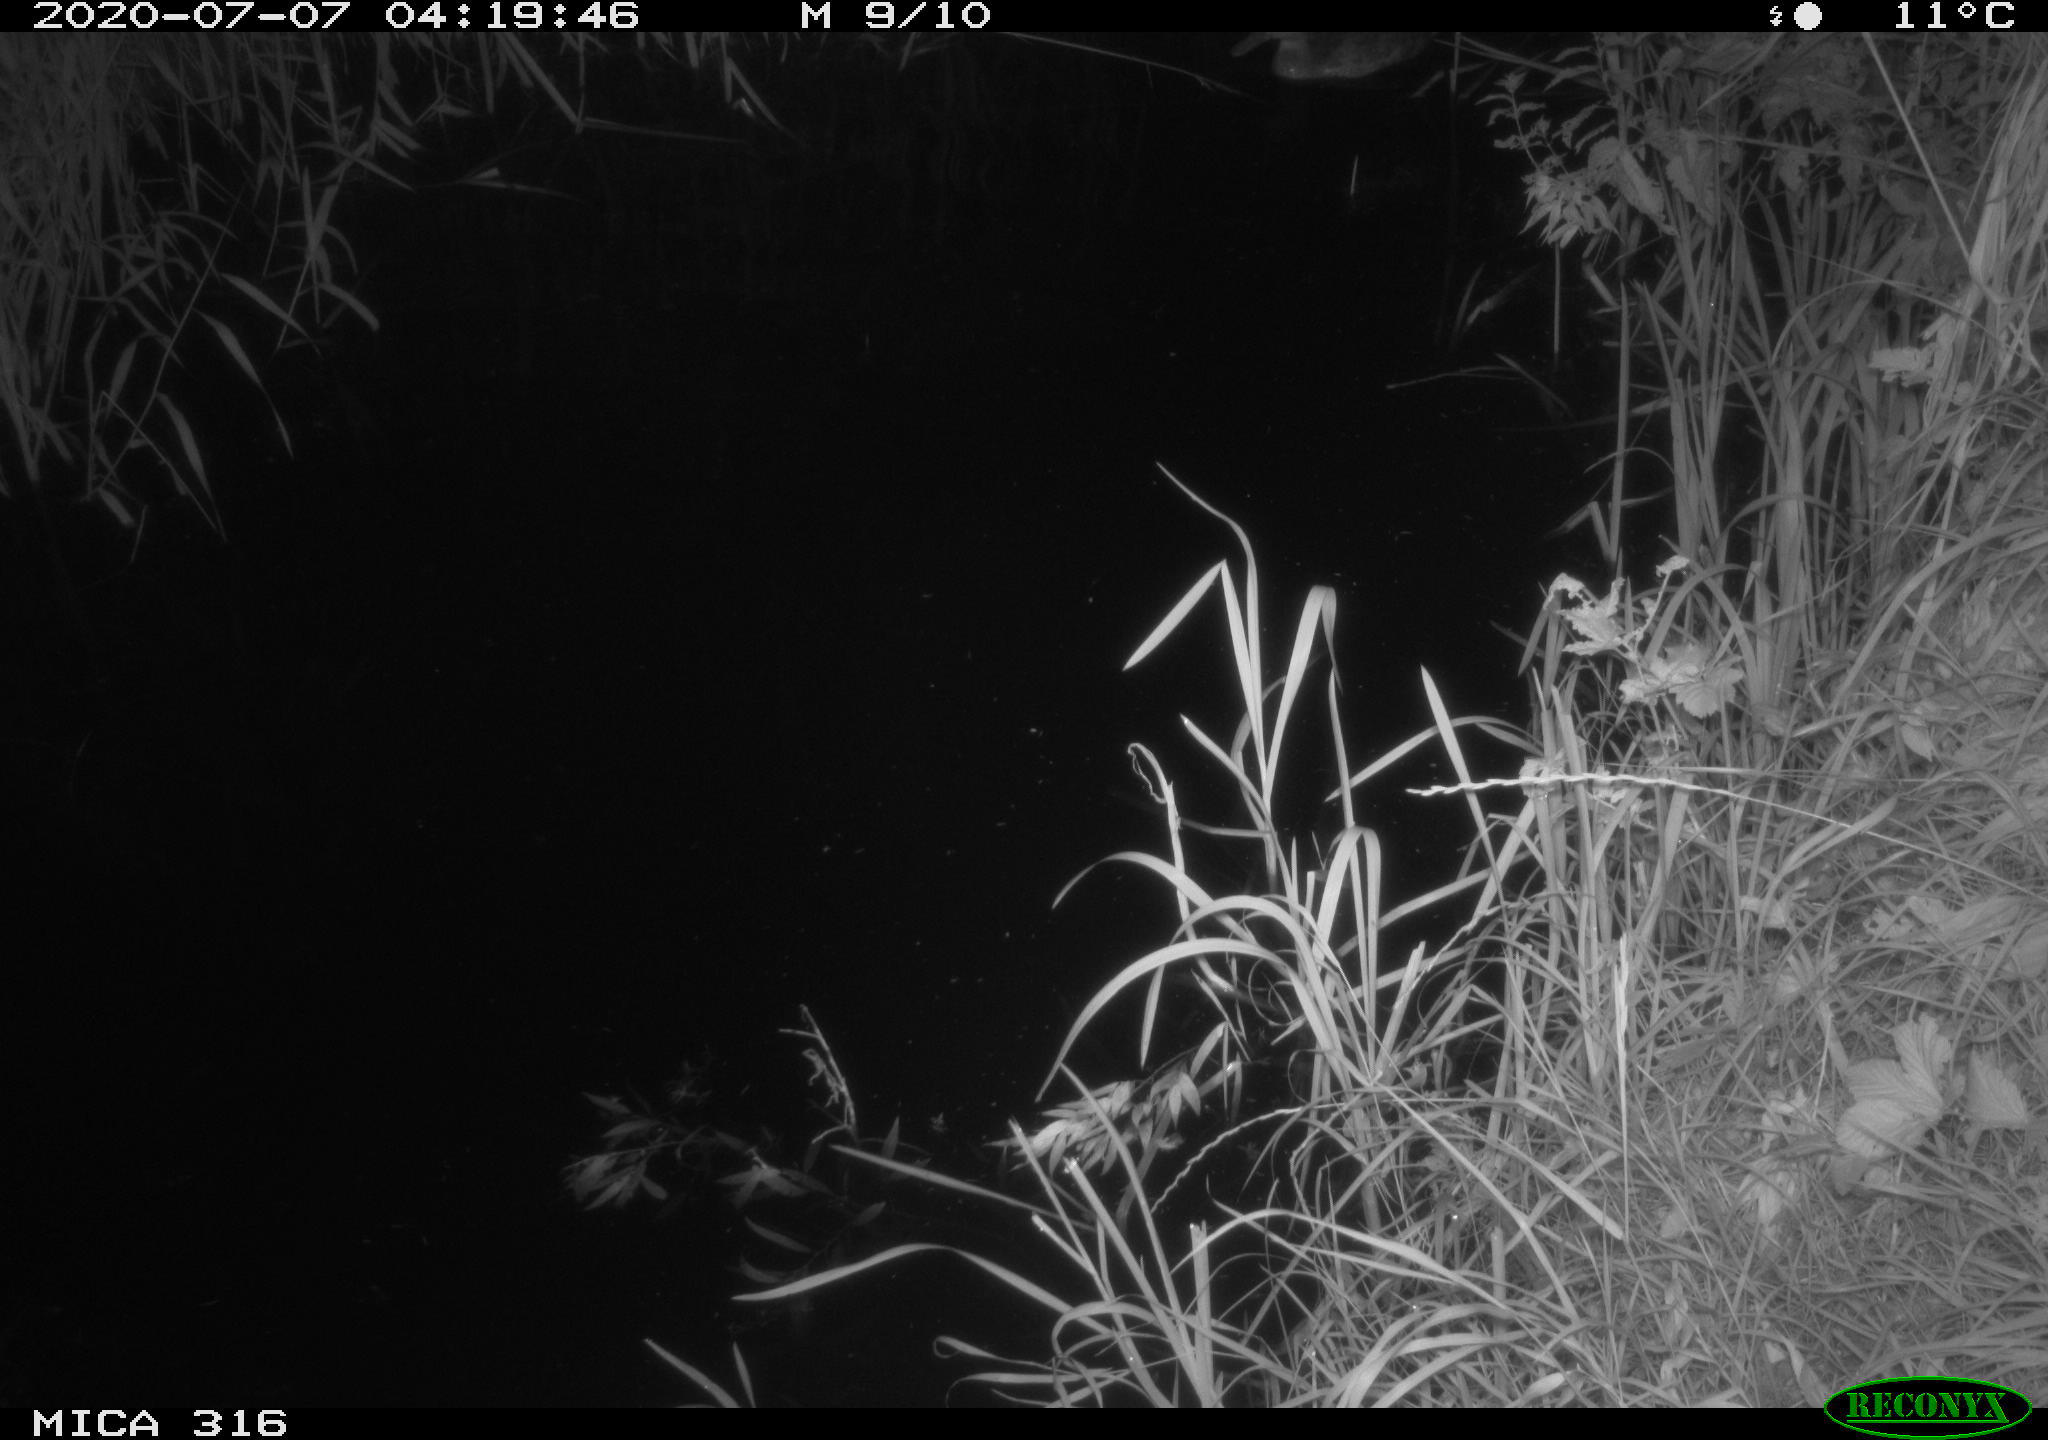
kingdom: Animalia
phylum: Chordata
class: Aves
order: Anseriformes
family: Anatidae
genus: Anas
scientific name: Anas platyrhynchos
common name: Mallard
